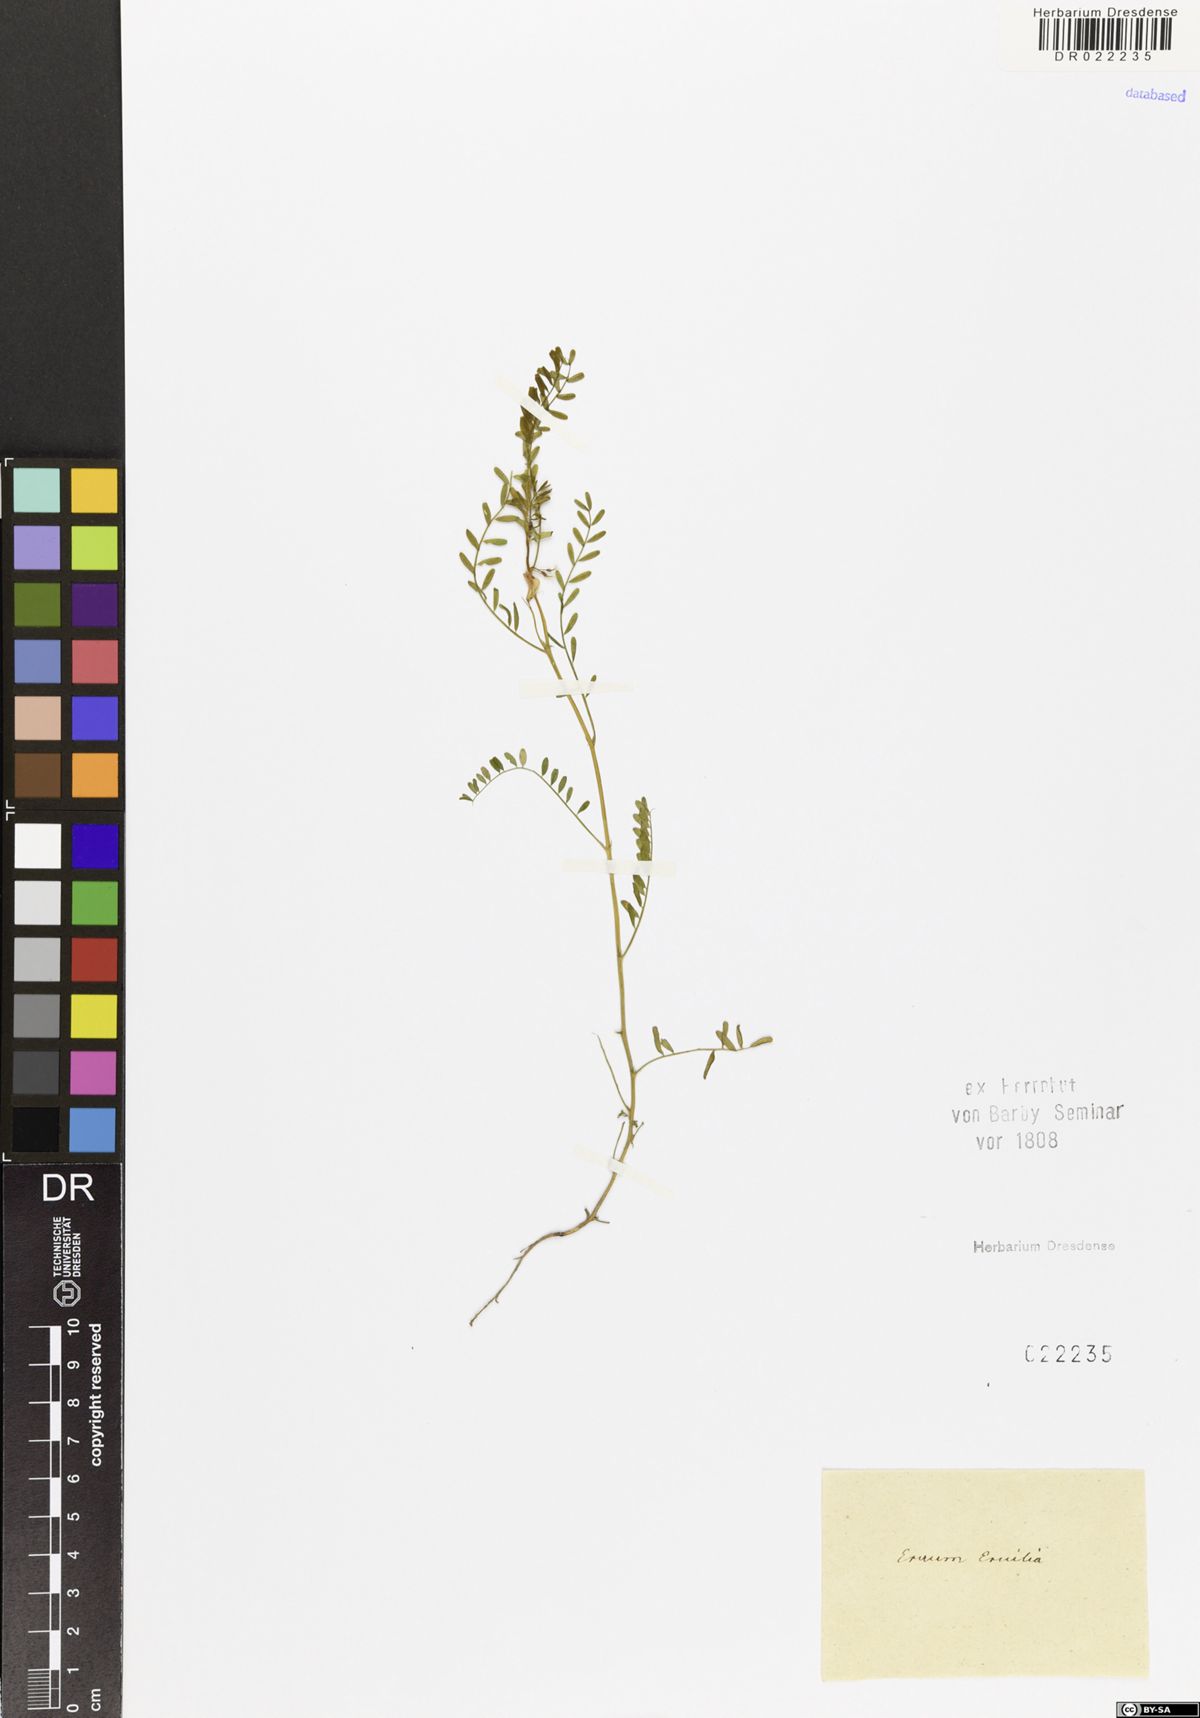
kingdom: Plantae
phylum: Tracheophyta
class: Magnoliopsida
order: Fabales
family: Fabaceae
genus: Vicia
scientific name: Vicia ervilia
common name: Bitter vetch
